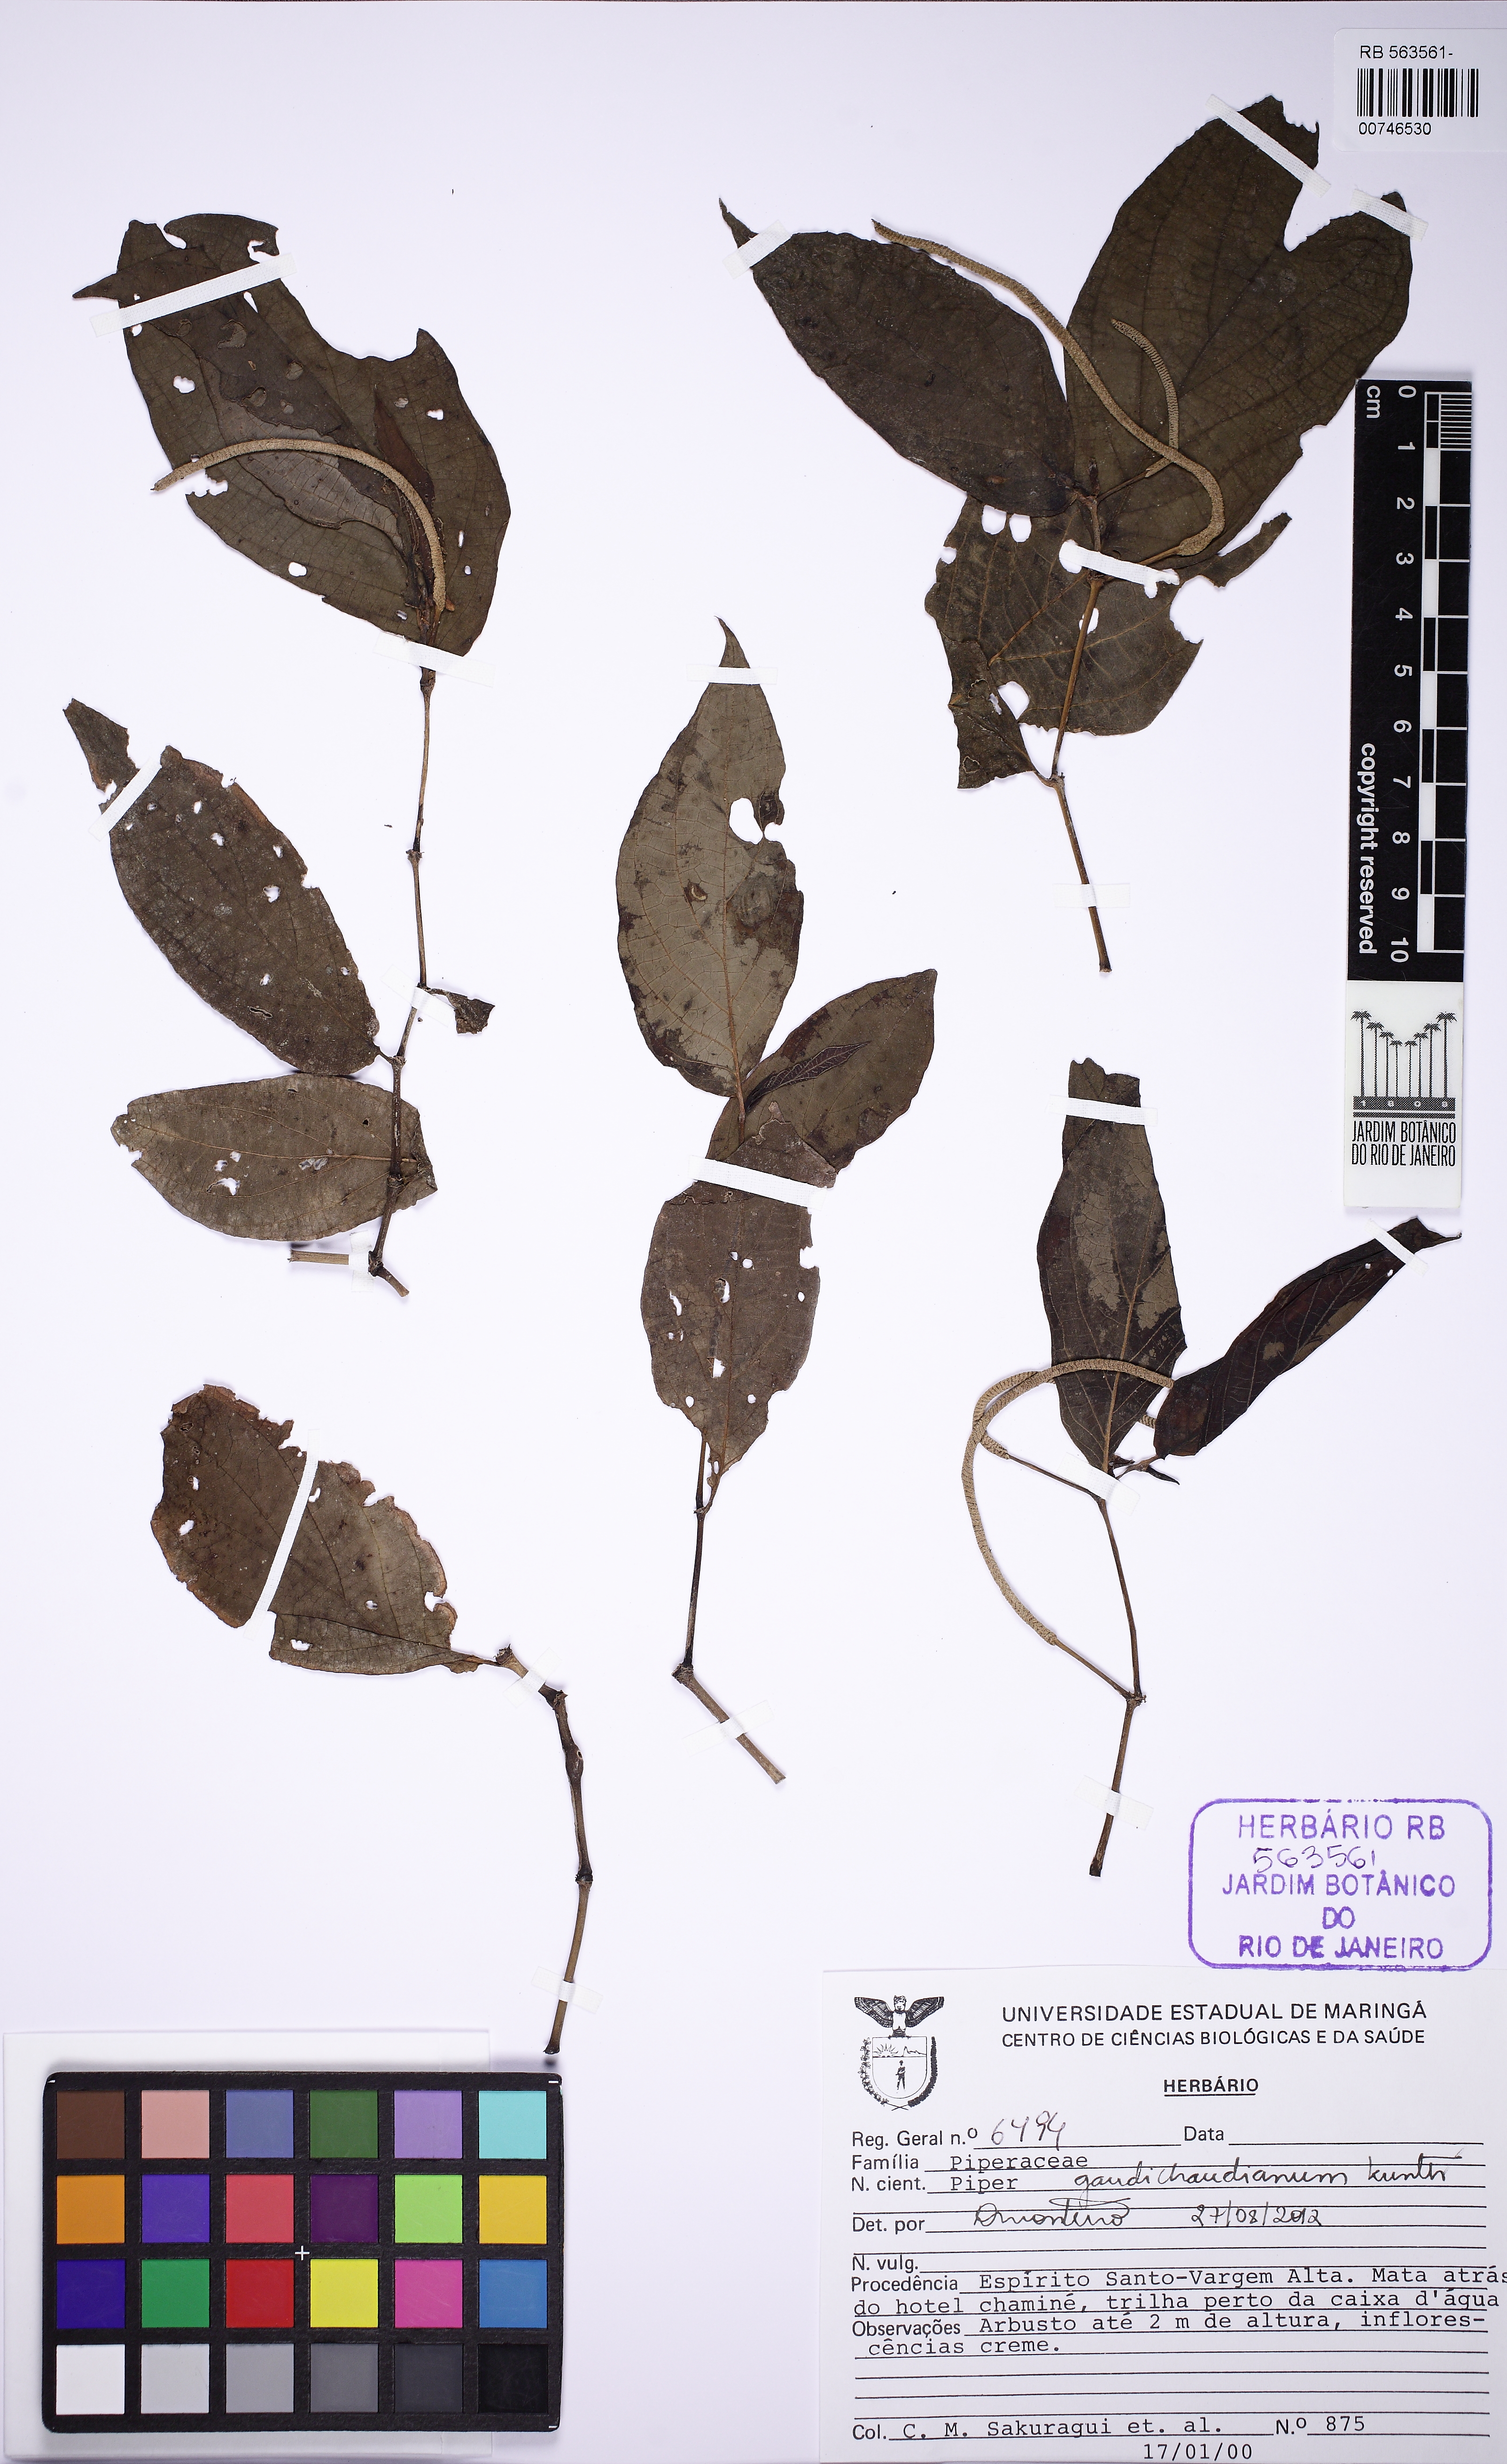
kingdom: Plantae
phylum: Tracheophyta
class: Magnoliopsida
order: Piperales
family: Piperaceae
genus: Piper
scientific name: Piper gaudichaudianum
